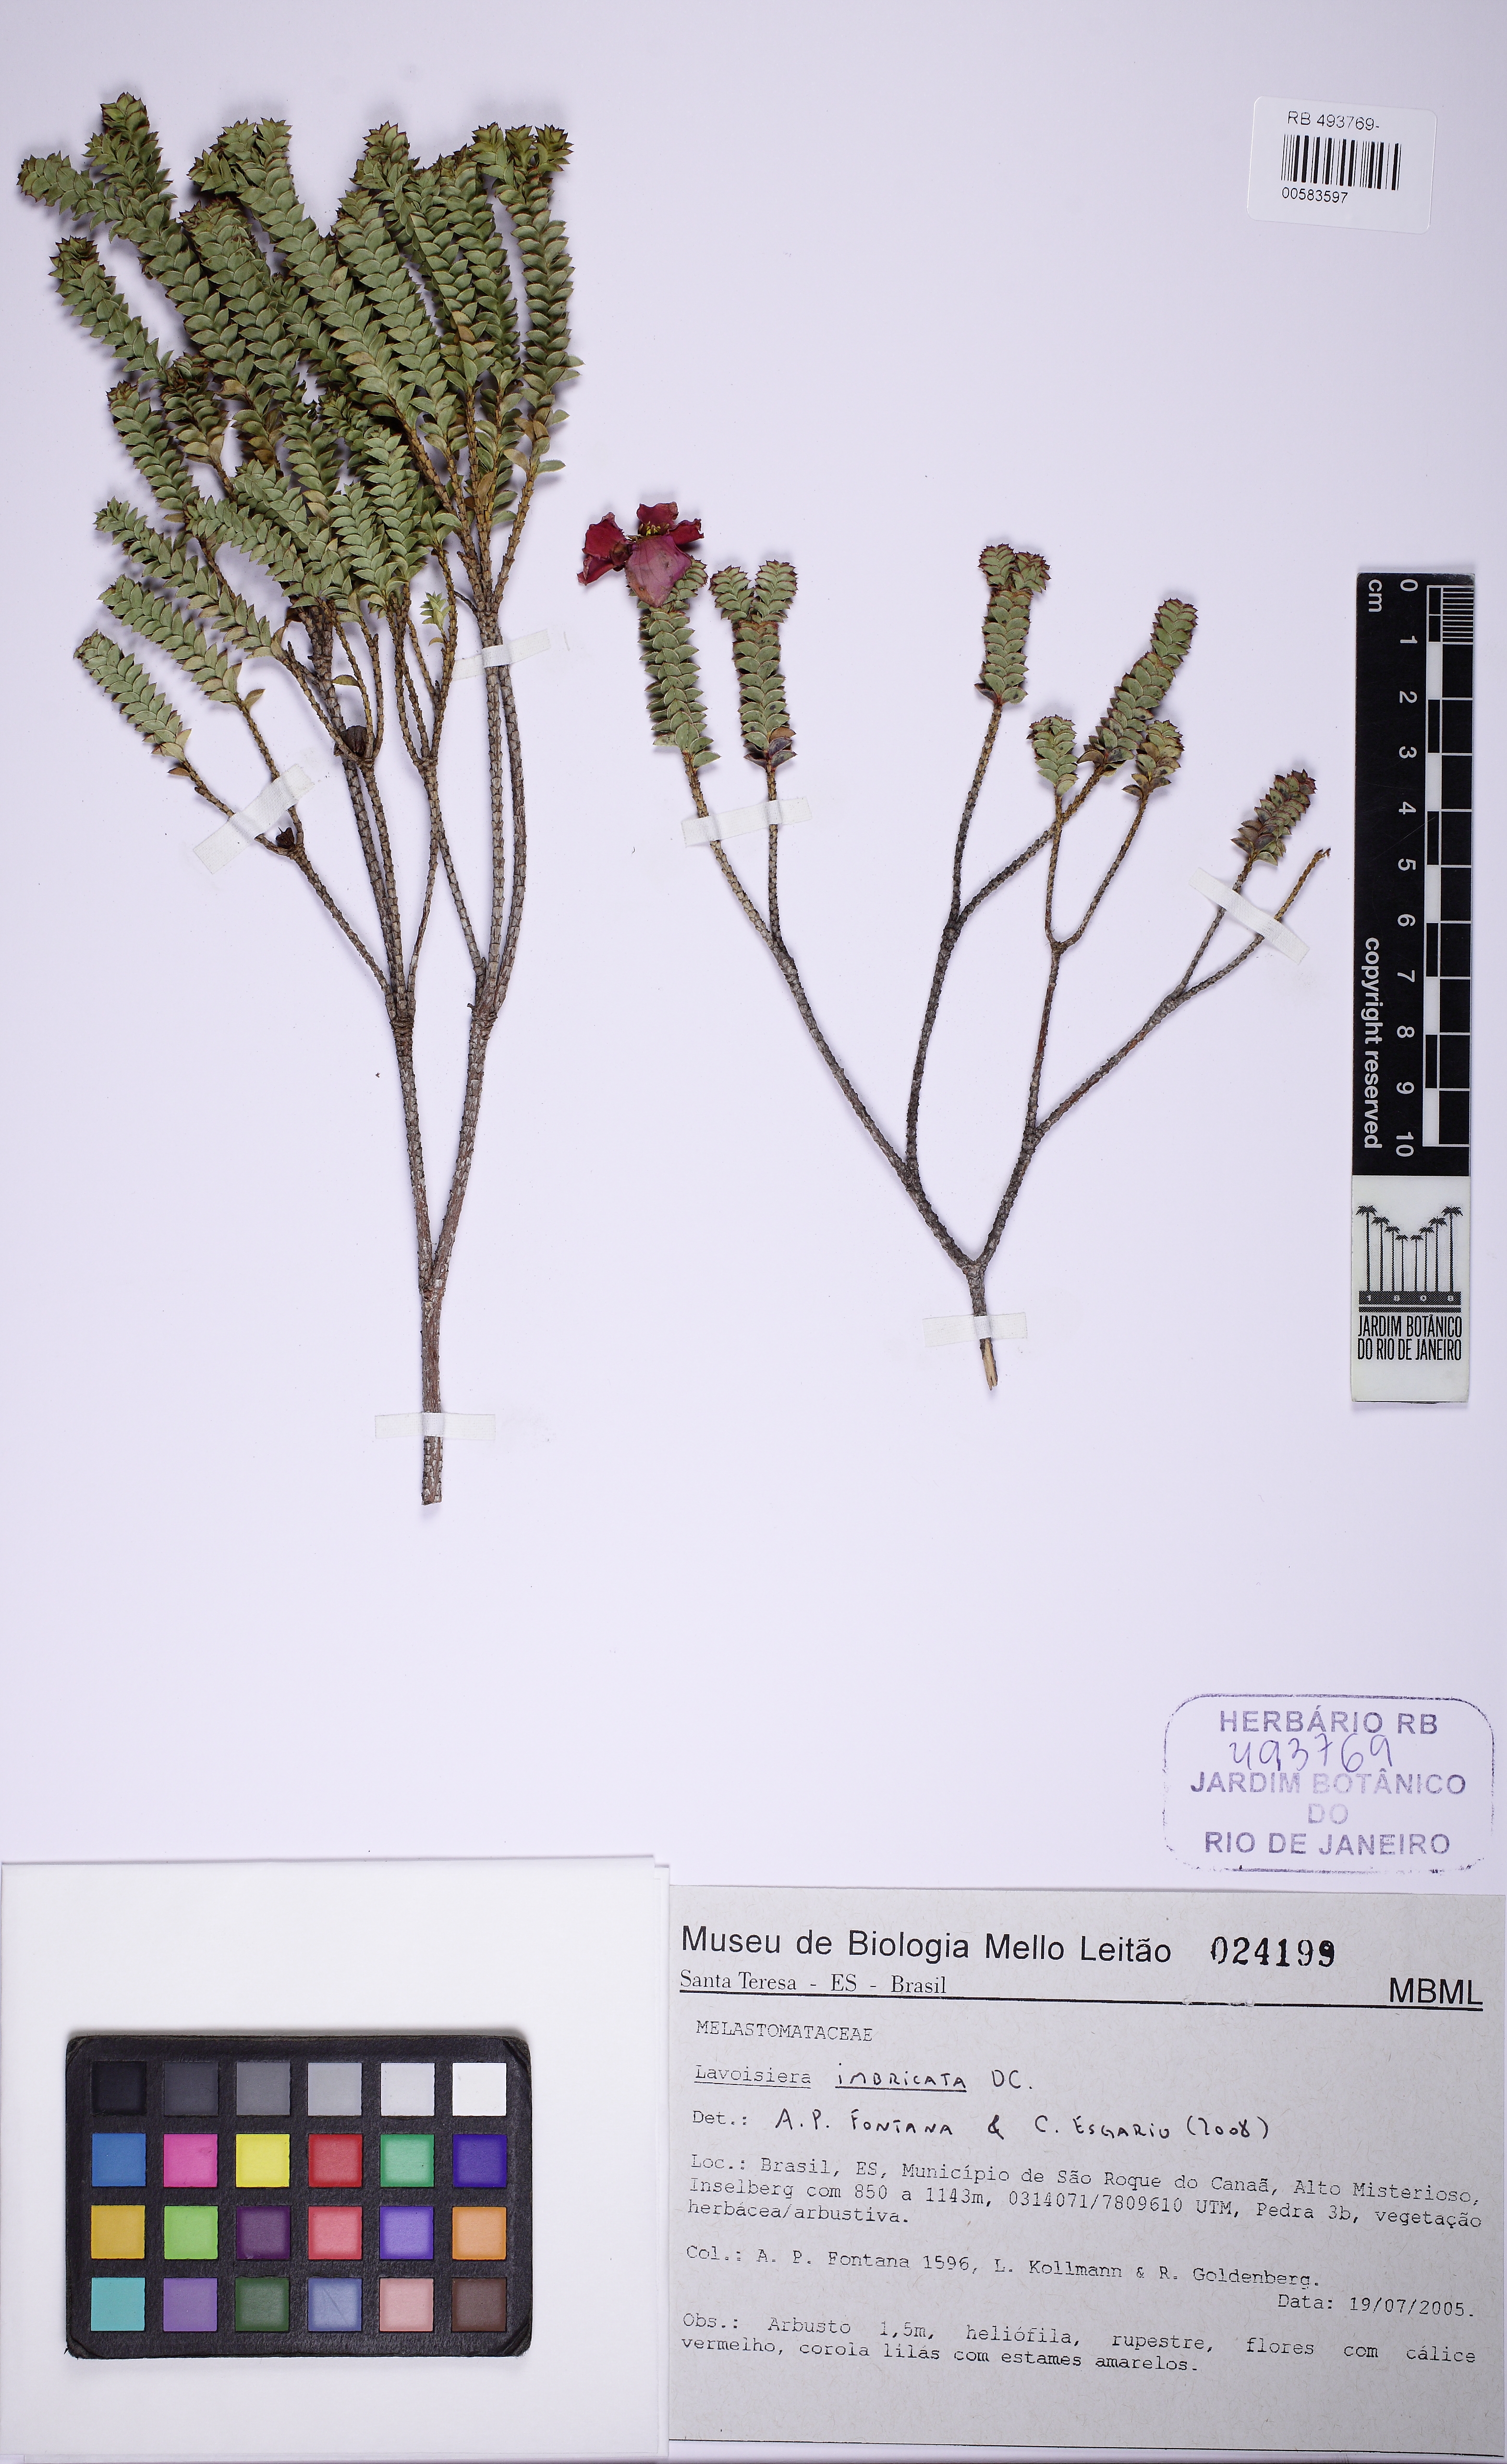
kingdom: Plantae
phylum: Tracheophyta
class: Magnoliopsida
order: Myrtales
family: Melastomataceae
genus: Microlicia
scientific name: Microlicia cataphracta
